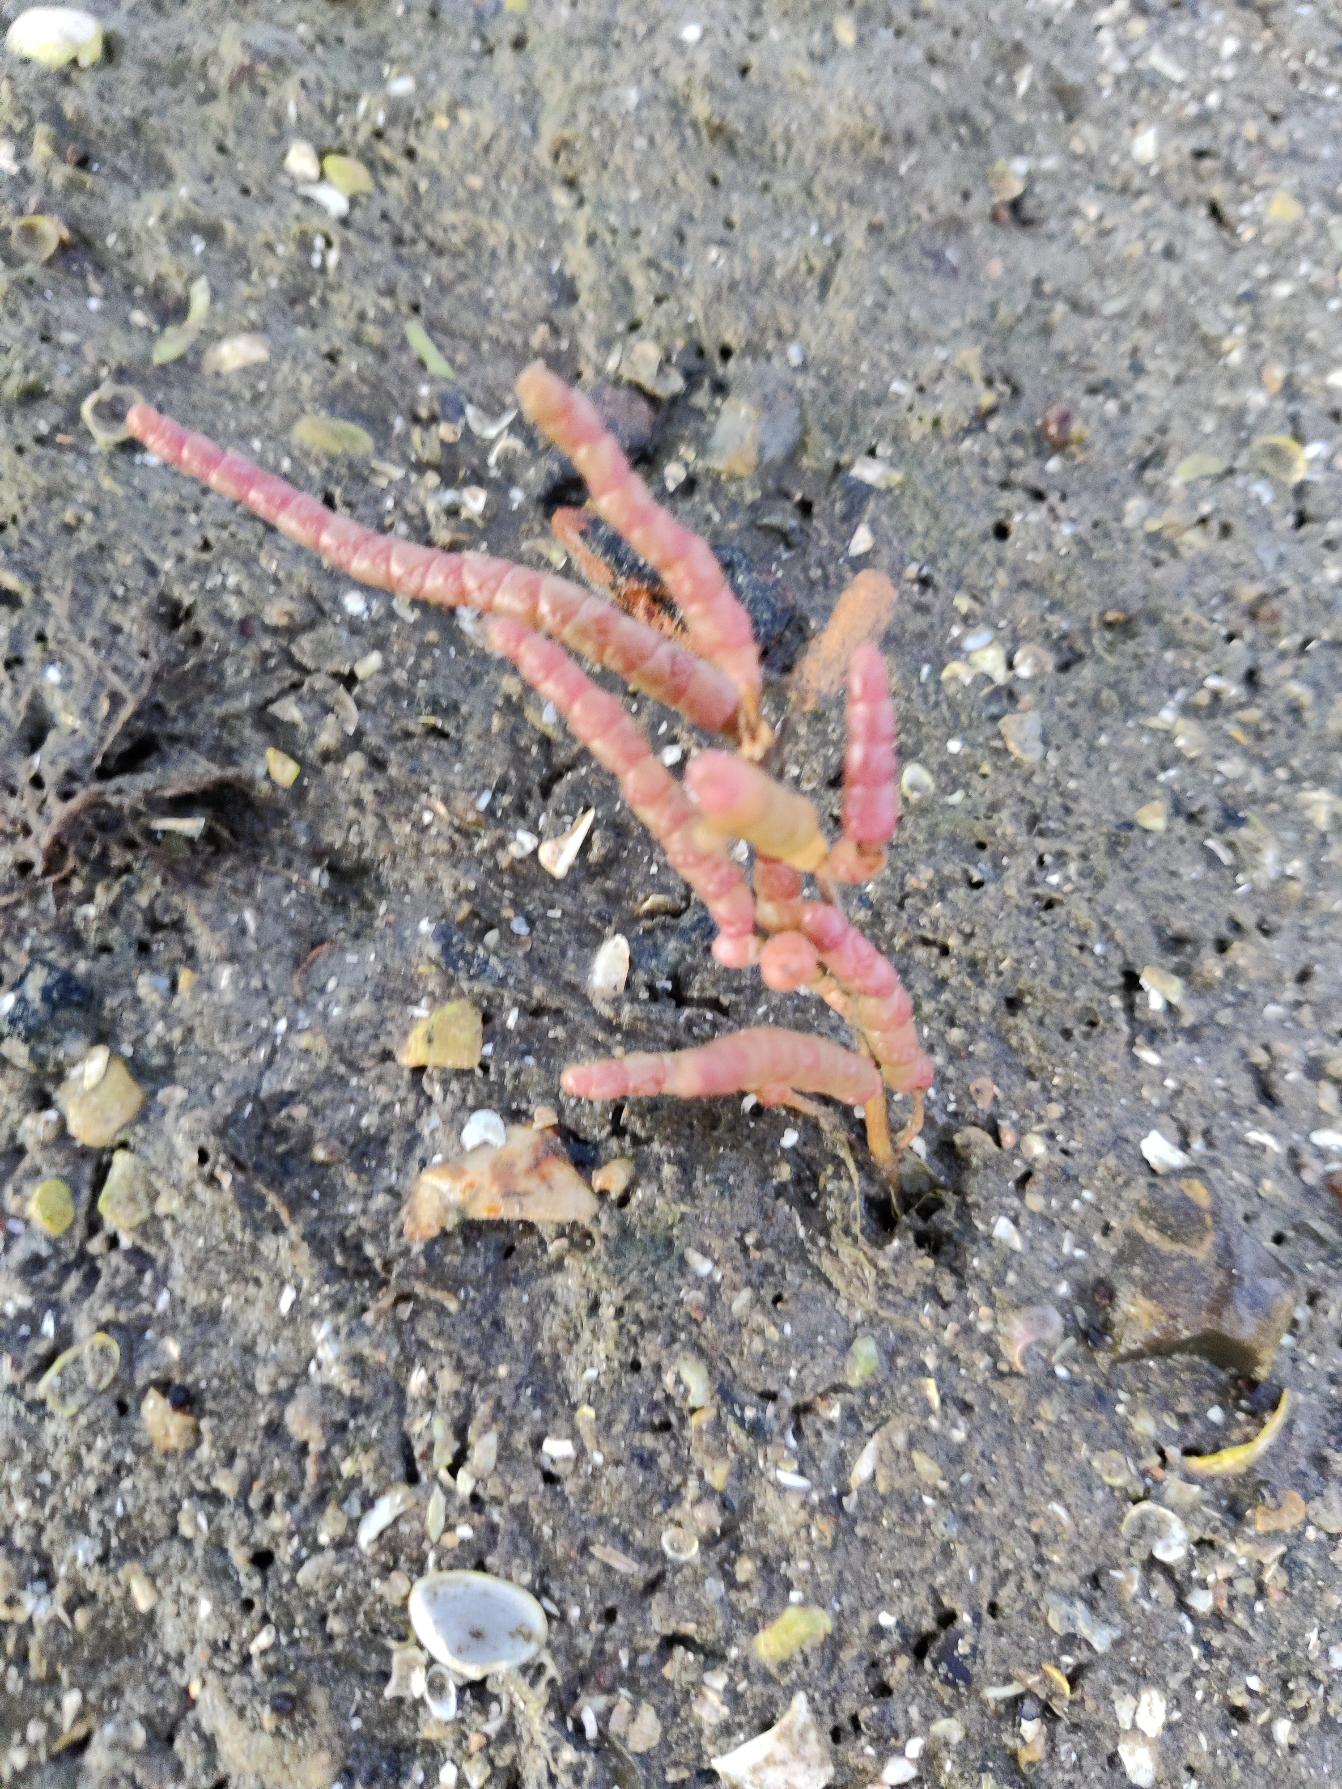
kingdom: Plantae
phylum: Tracheophyta
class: Magnoliopsida
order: Caryophyllales
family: Amaranthaceae
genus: Salicornia
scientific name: Salicornia procumbens
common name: Langakset salturt
